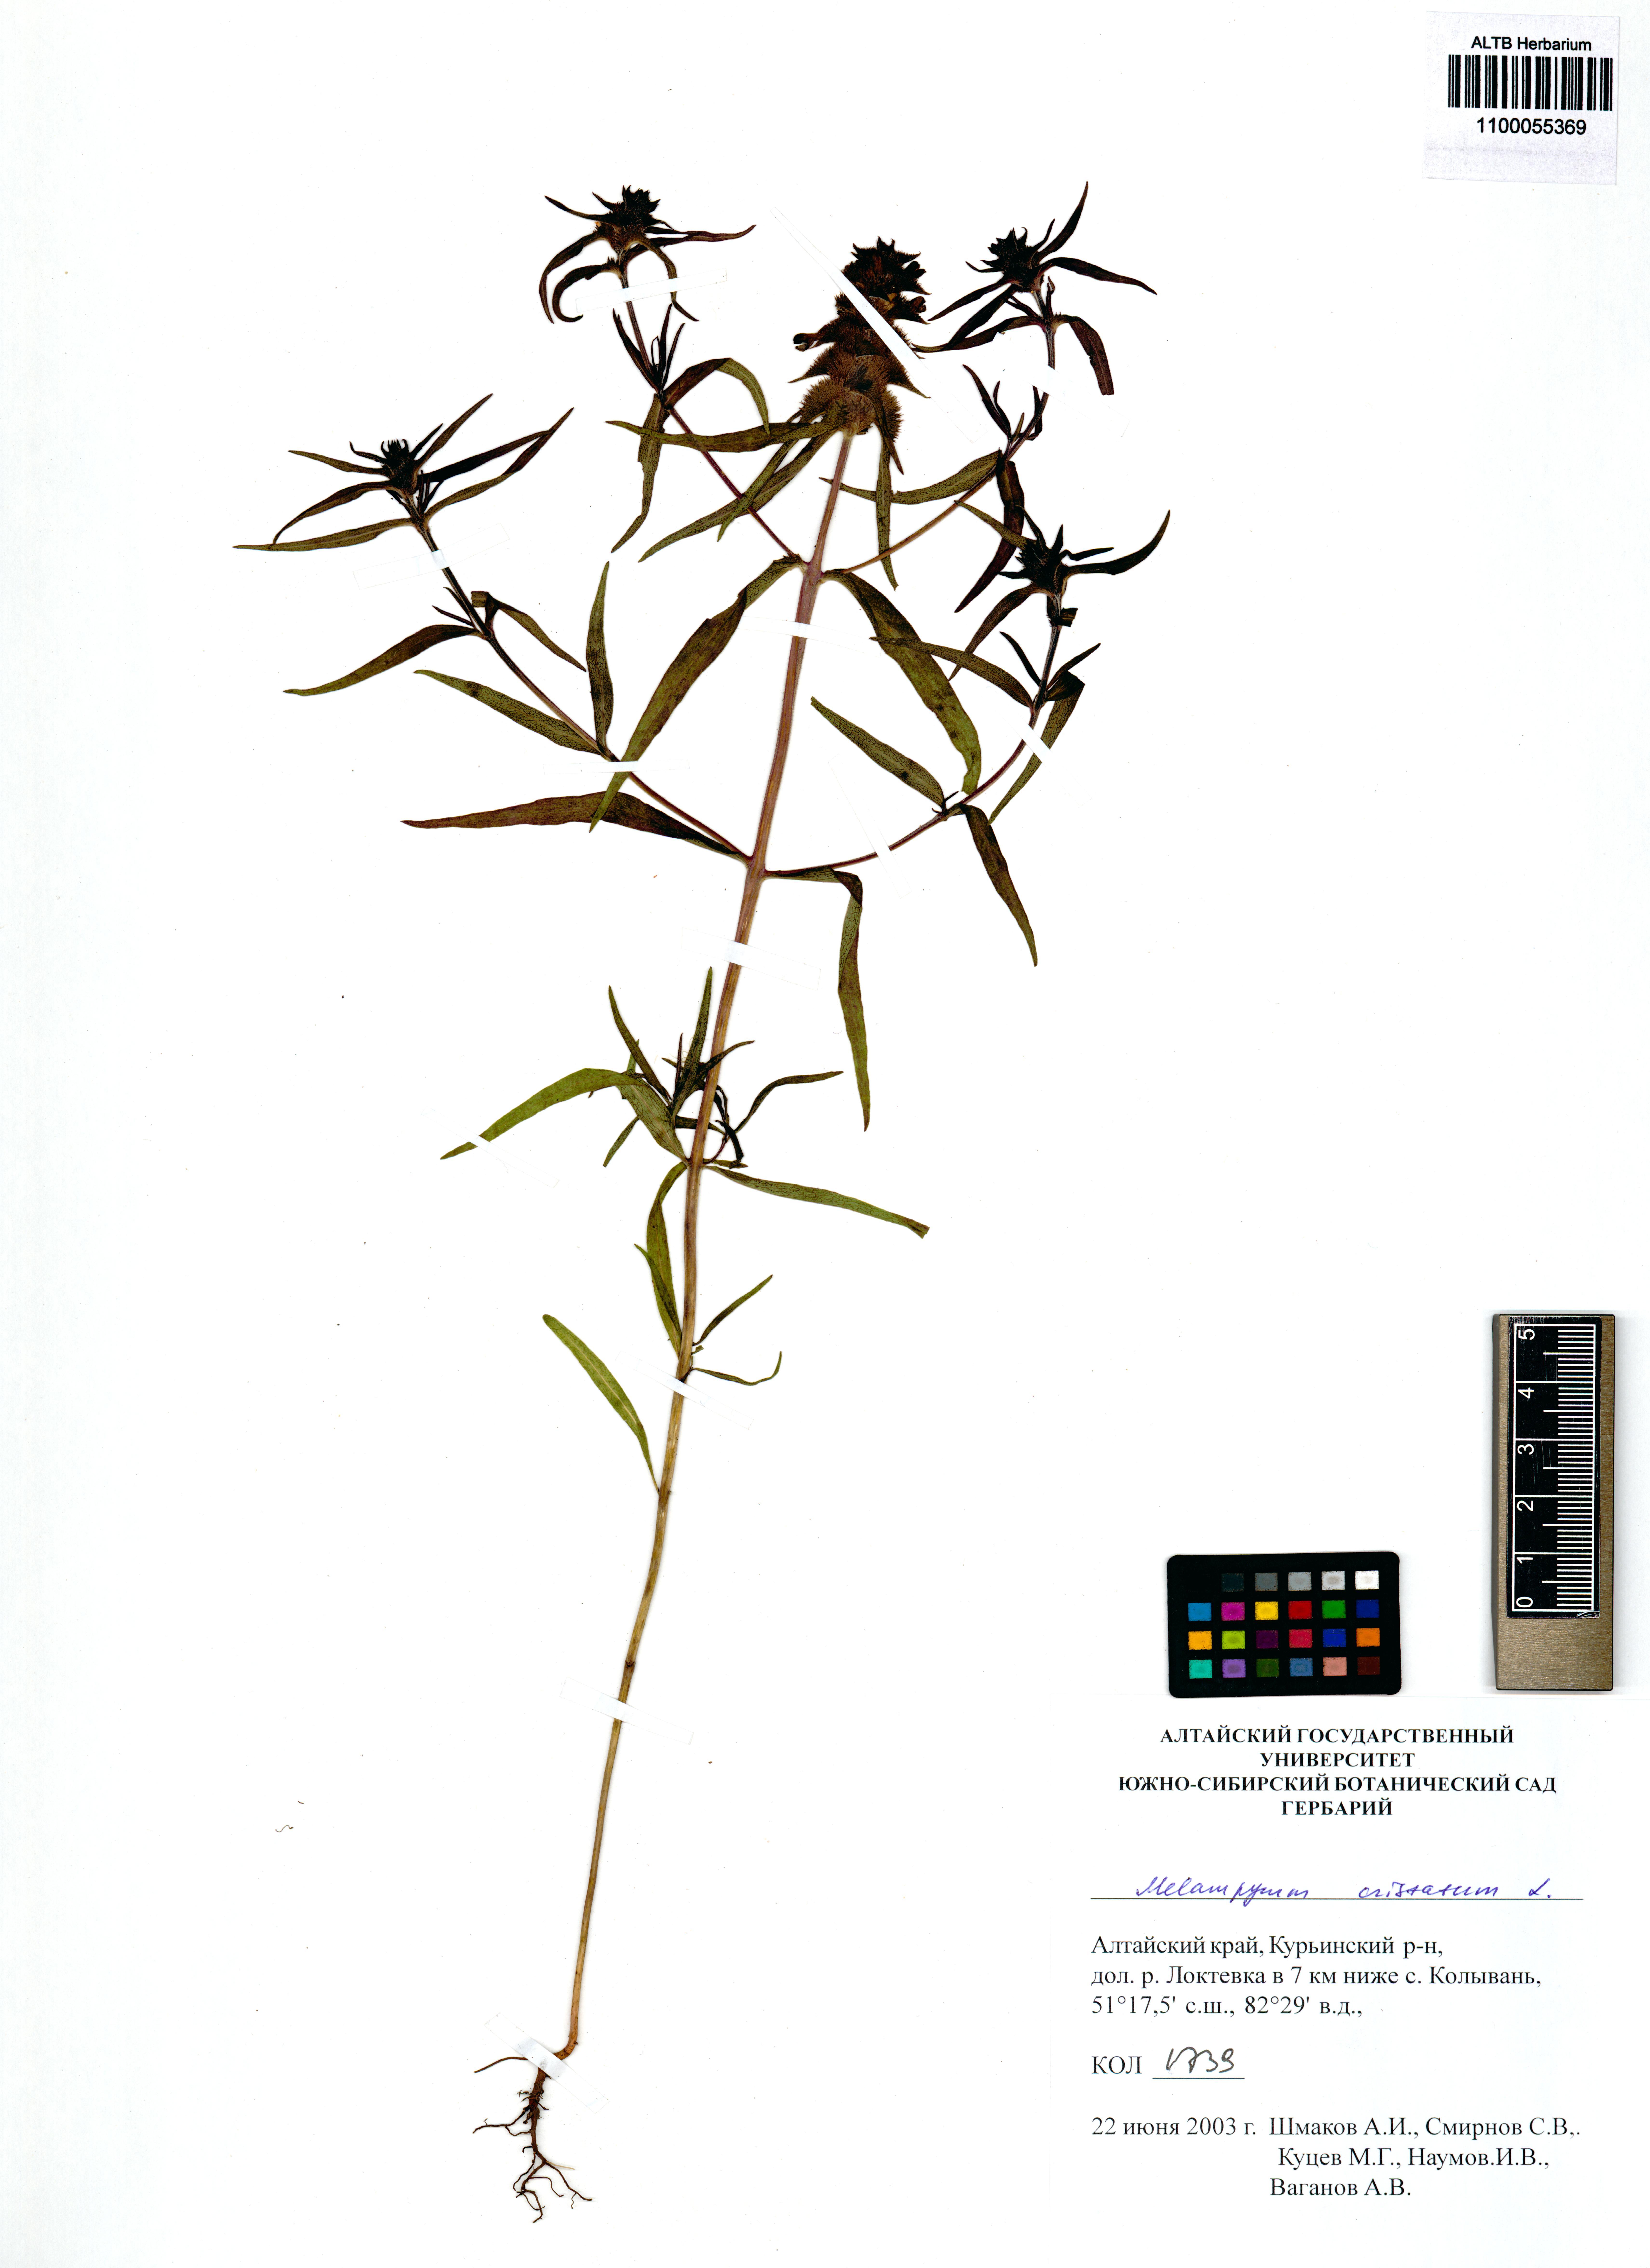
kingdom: Plantae
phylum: Tracheophyta
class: Magnoliopsida
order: Lamiales
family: Orobanchaceae
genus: Melampyrum
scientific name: Melampyrum cristatum
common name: Crested cow-wheat
